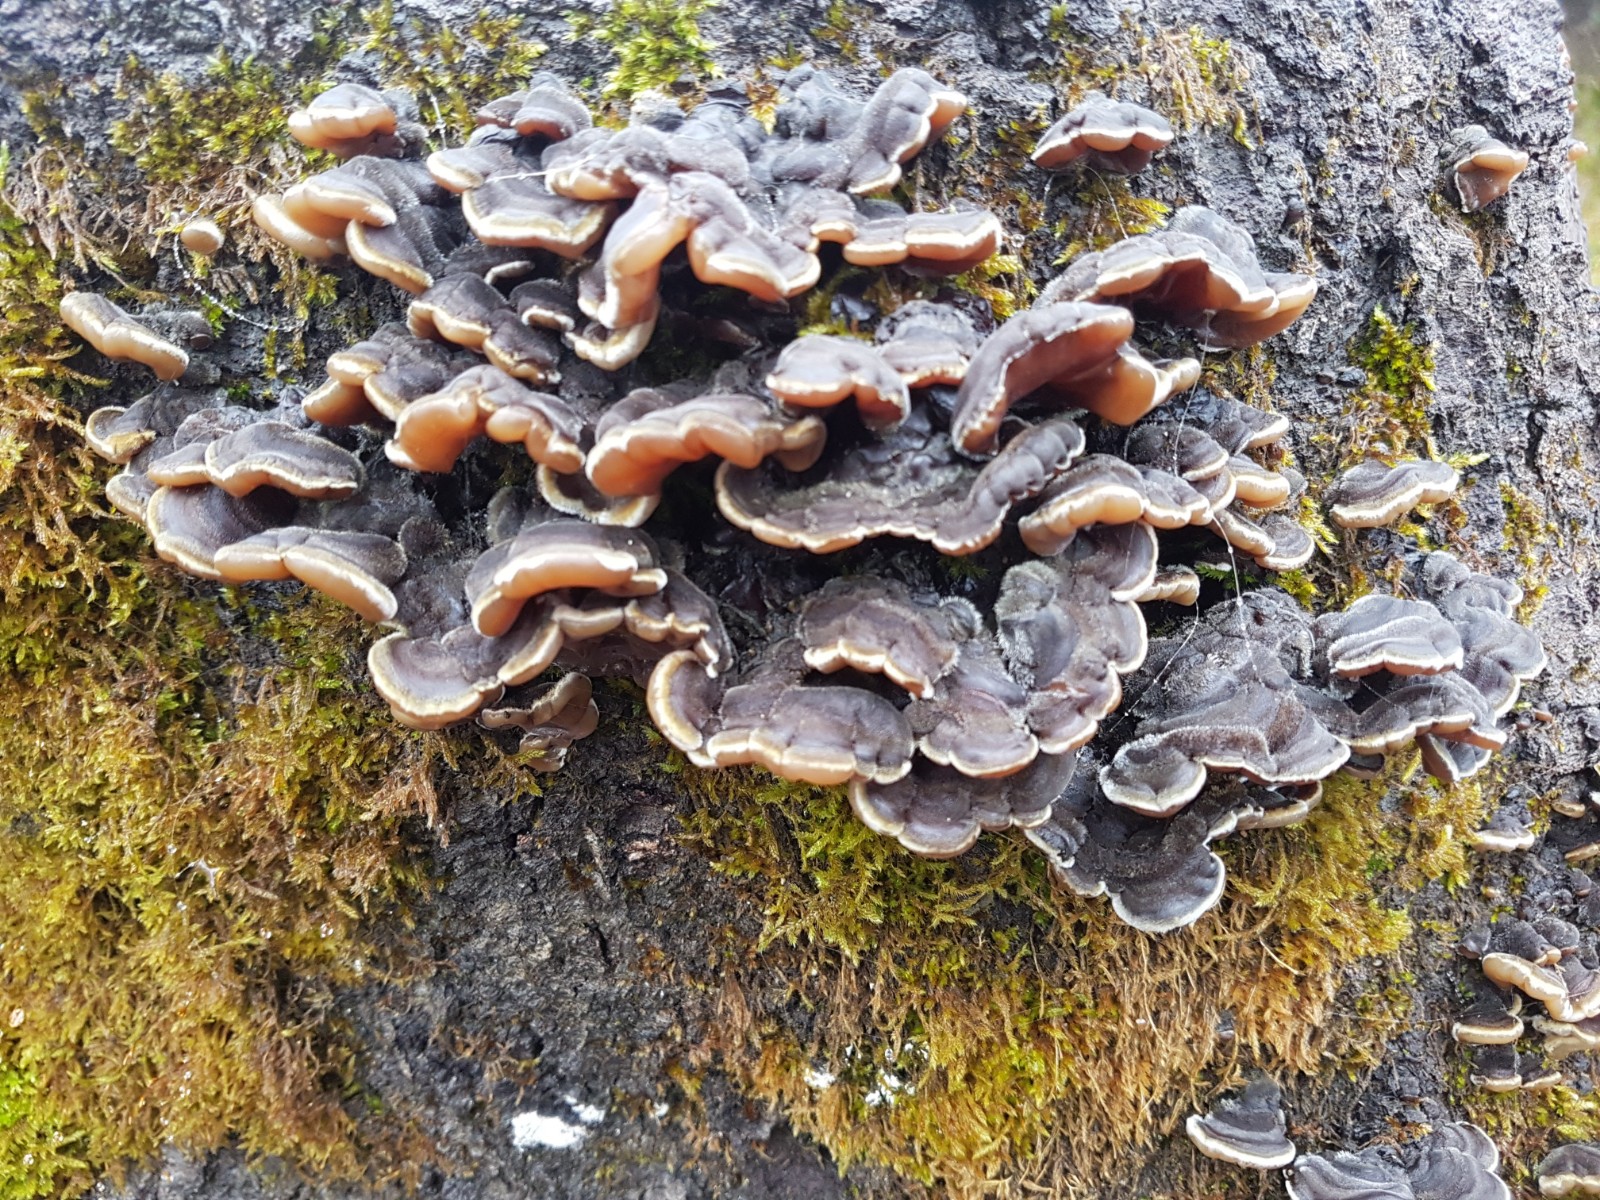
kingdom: Fungi
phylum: Basidiomycota
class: Agaricomycetes
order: Auriculariales
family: Auriculariaceae
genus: Auricularia
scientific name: Auricularia mesenterica
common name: håret judasøre
